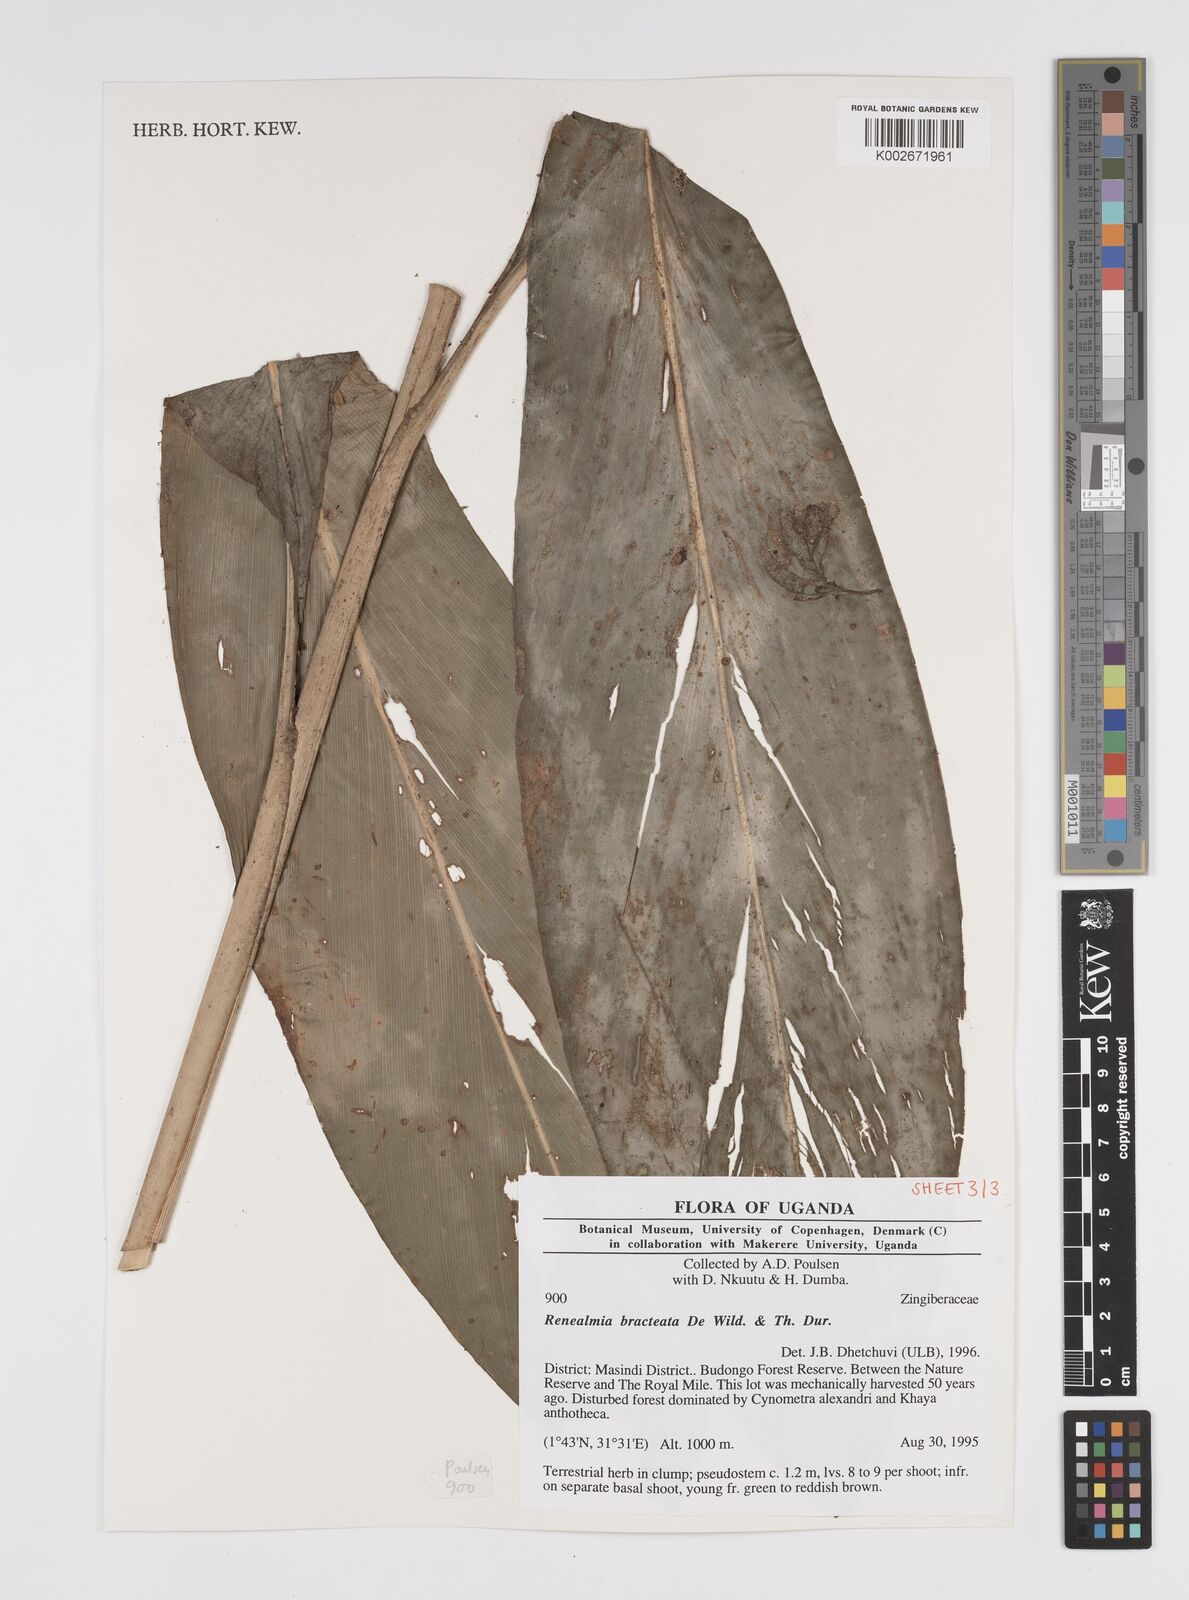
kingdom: Plantae
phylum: Tracheophyta
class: Liliopsida
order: Zingiberales
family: Zingiberaceae
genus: Renealmia
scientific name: Renealmia bracteata
